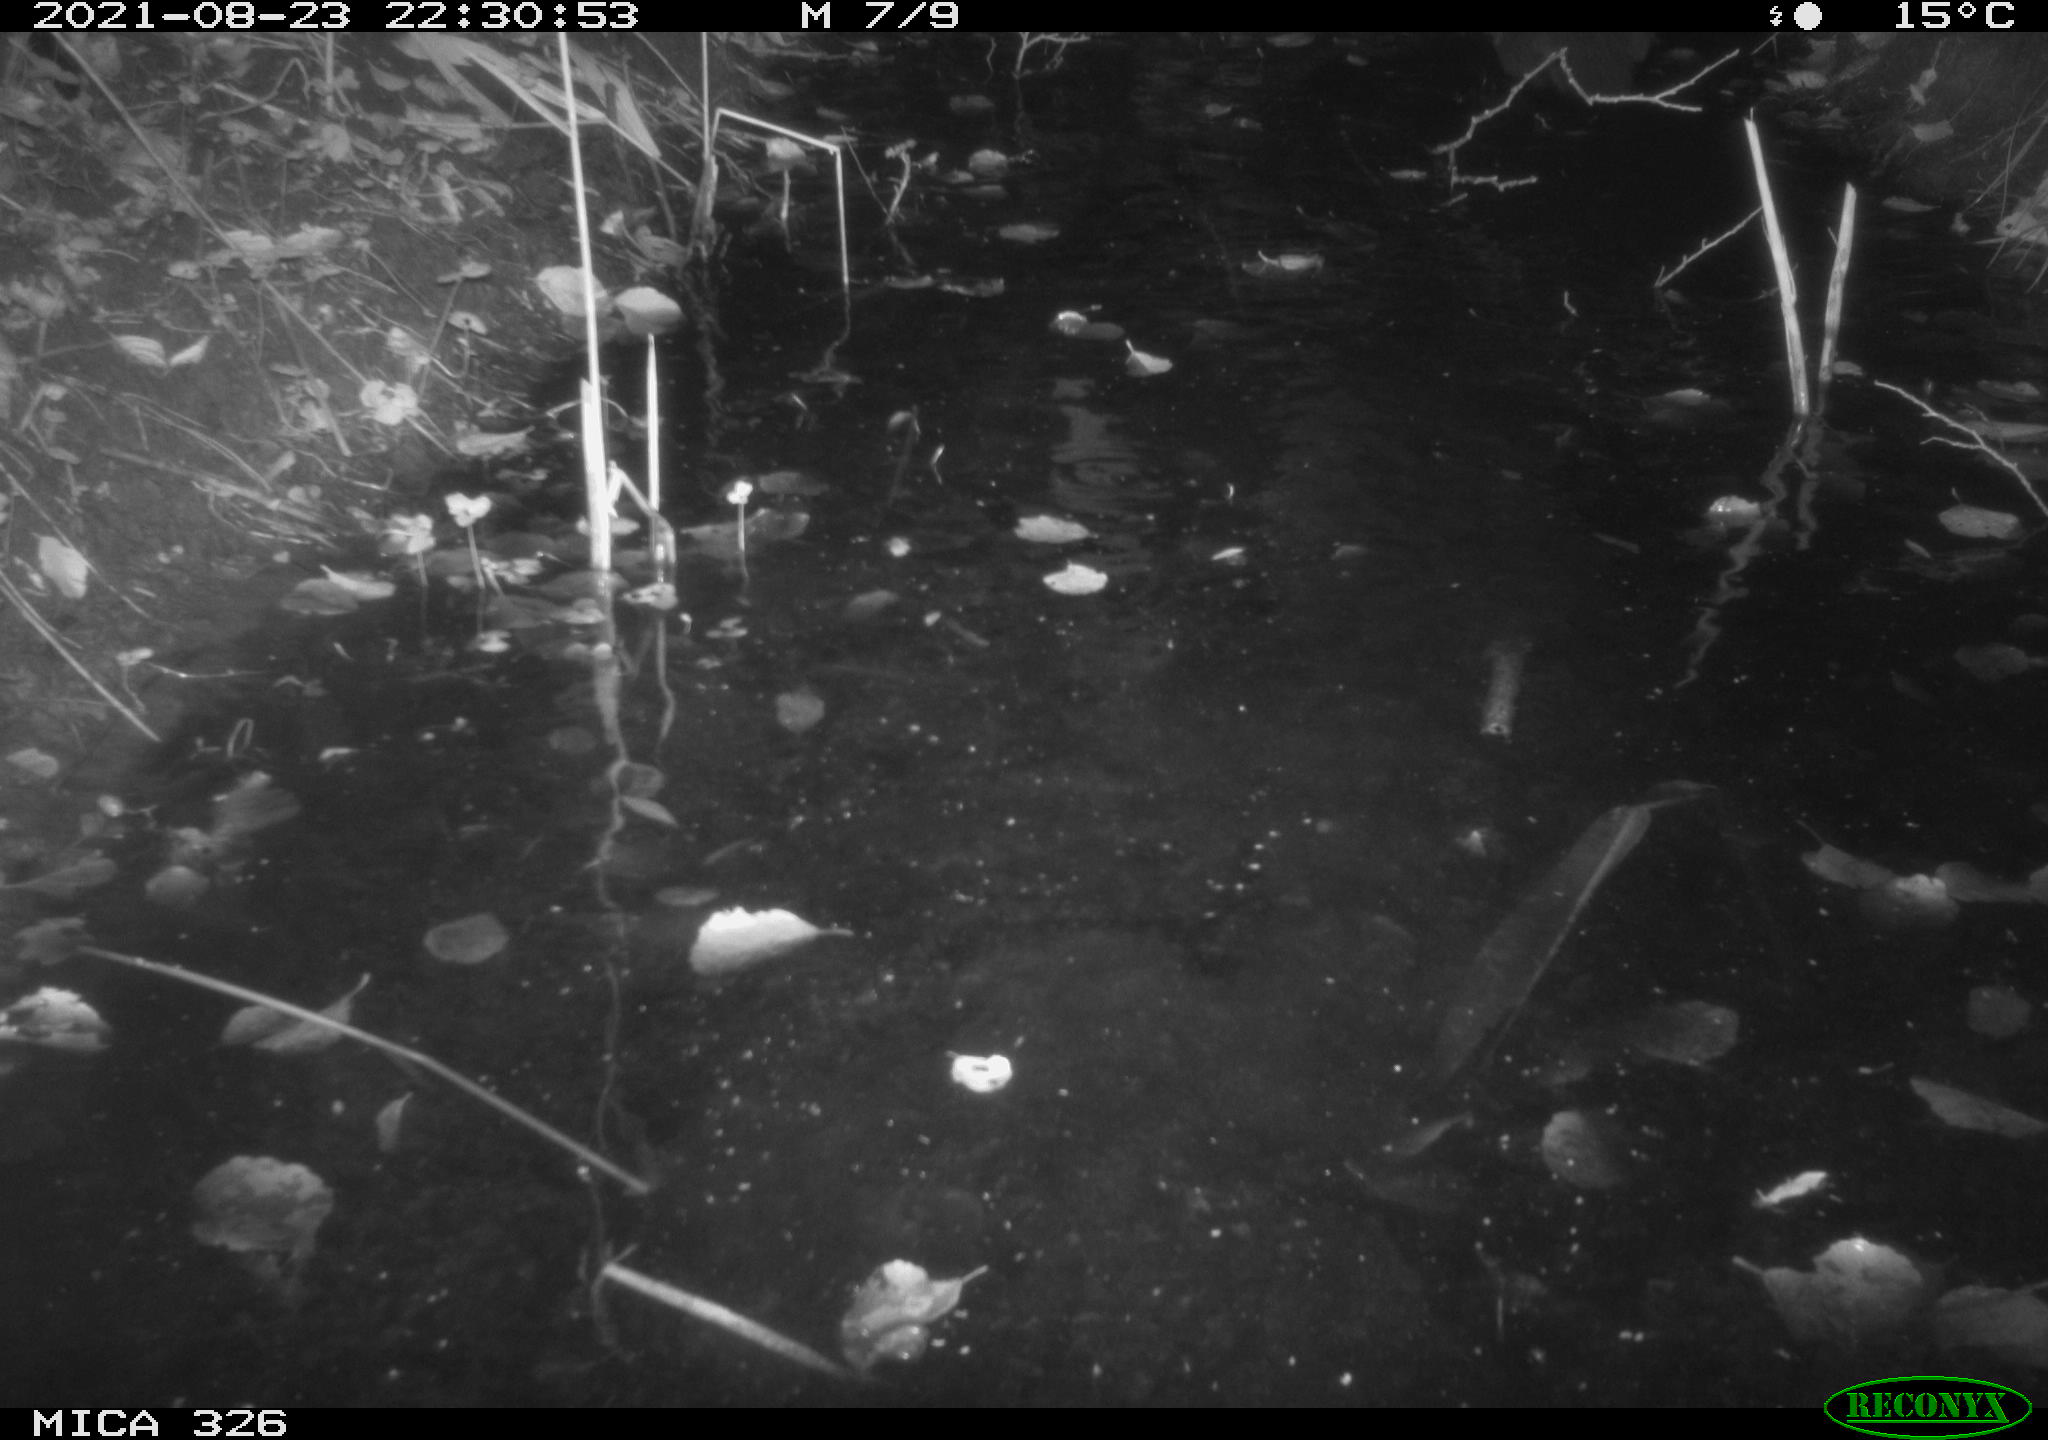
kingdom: Animalia
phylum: Chordata
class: Mammalia
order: Carnivora
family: Mustelidae
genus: Lutra
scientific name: Lutra lutra
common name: European otter
